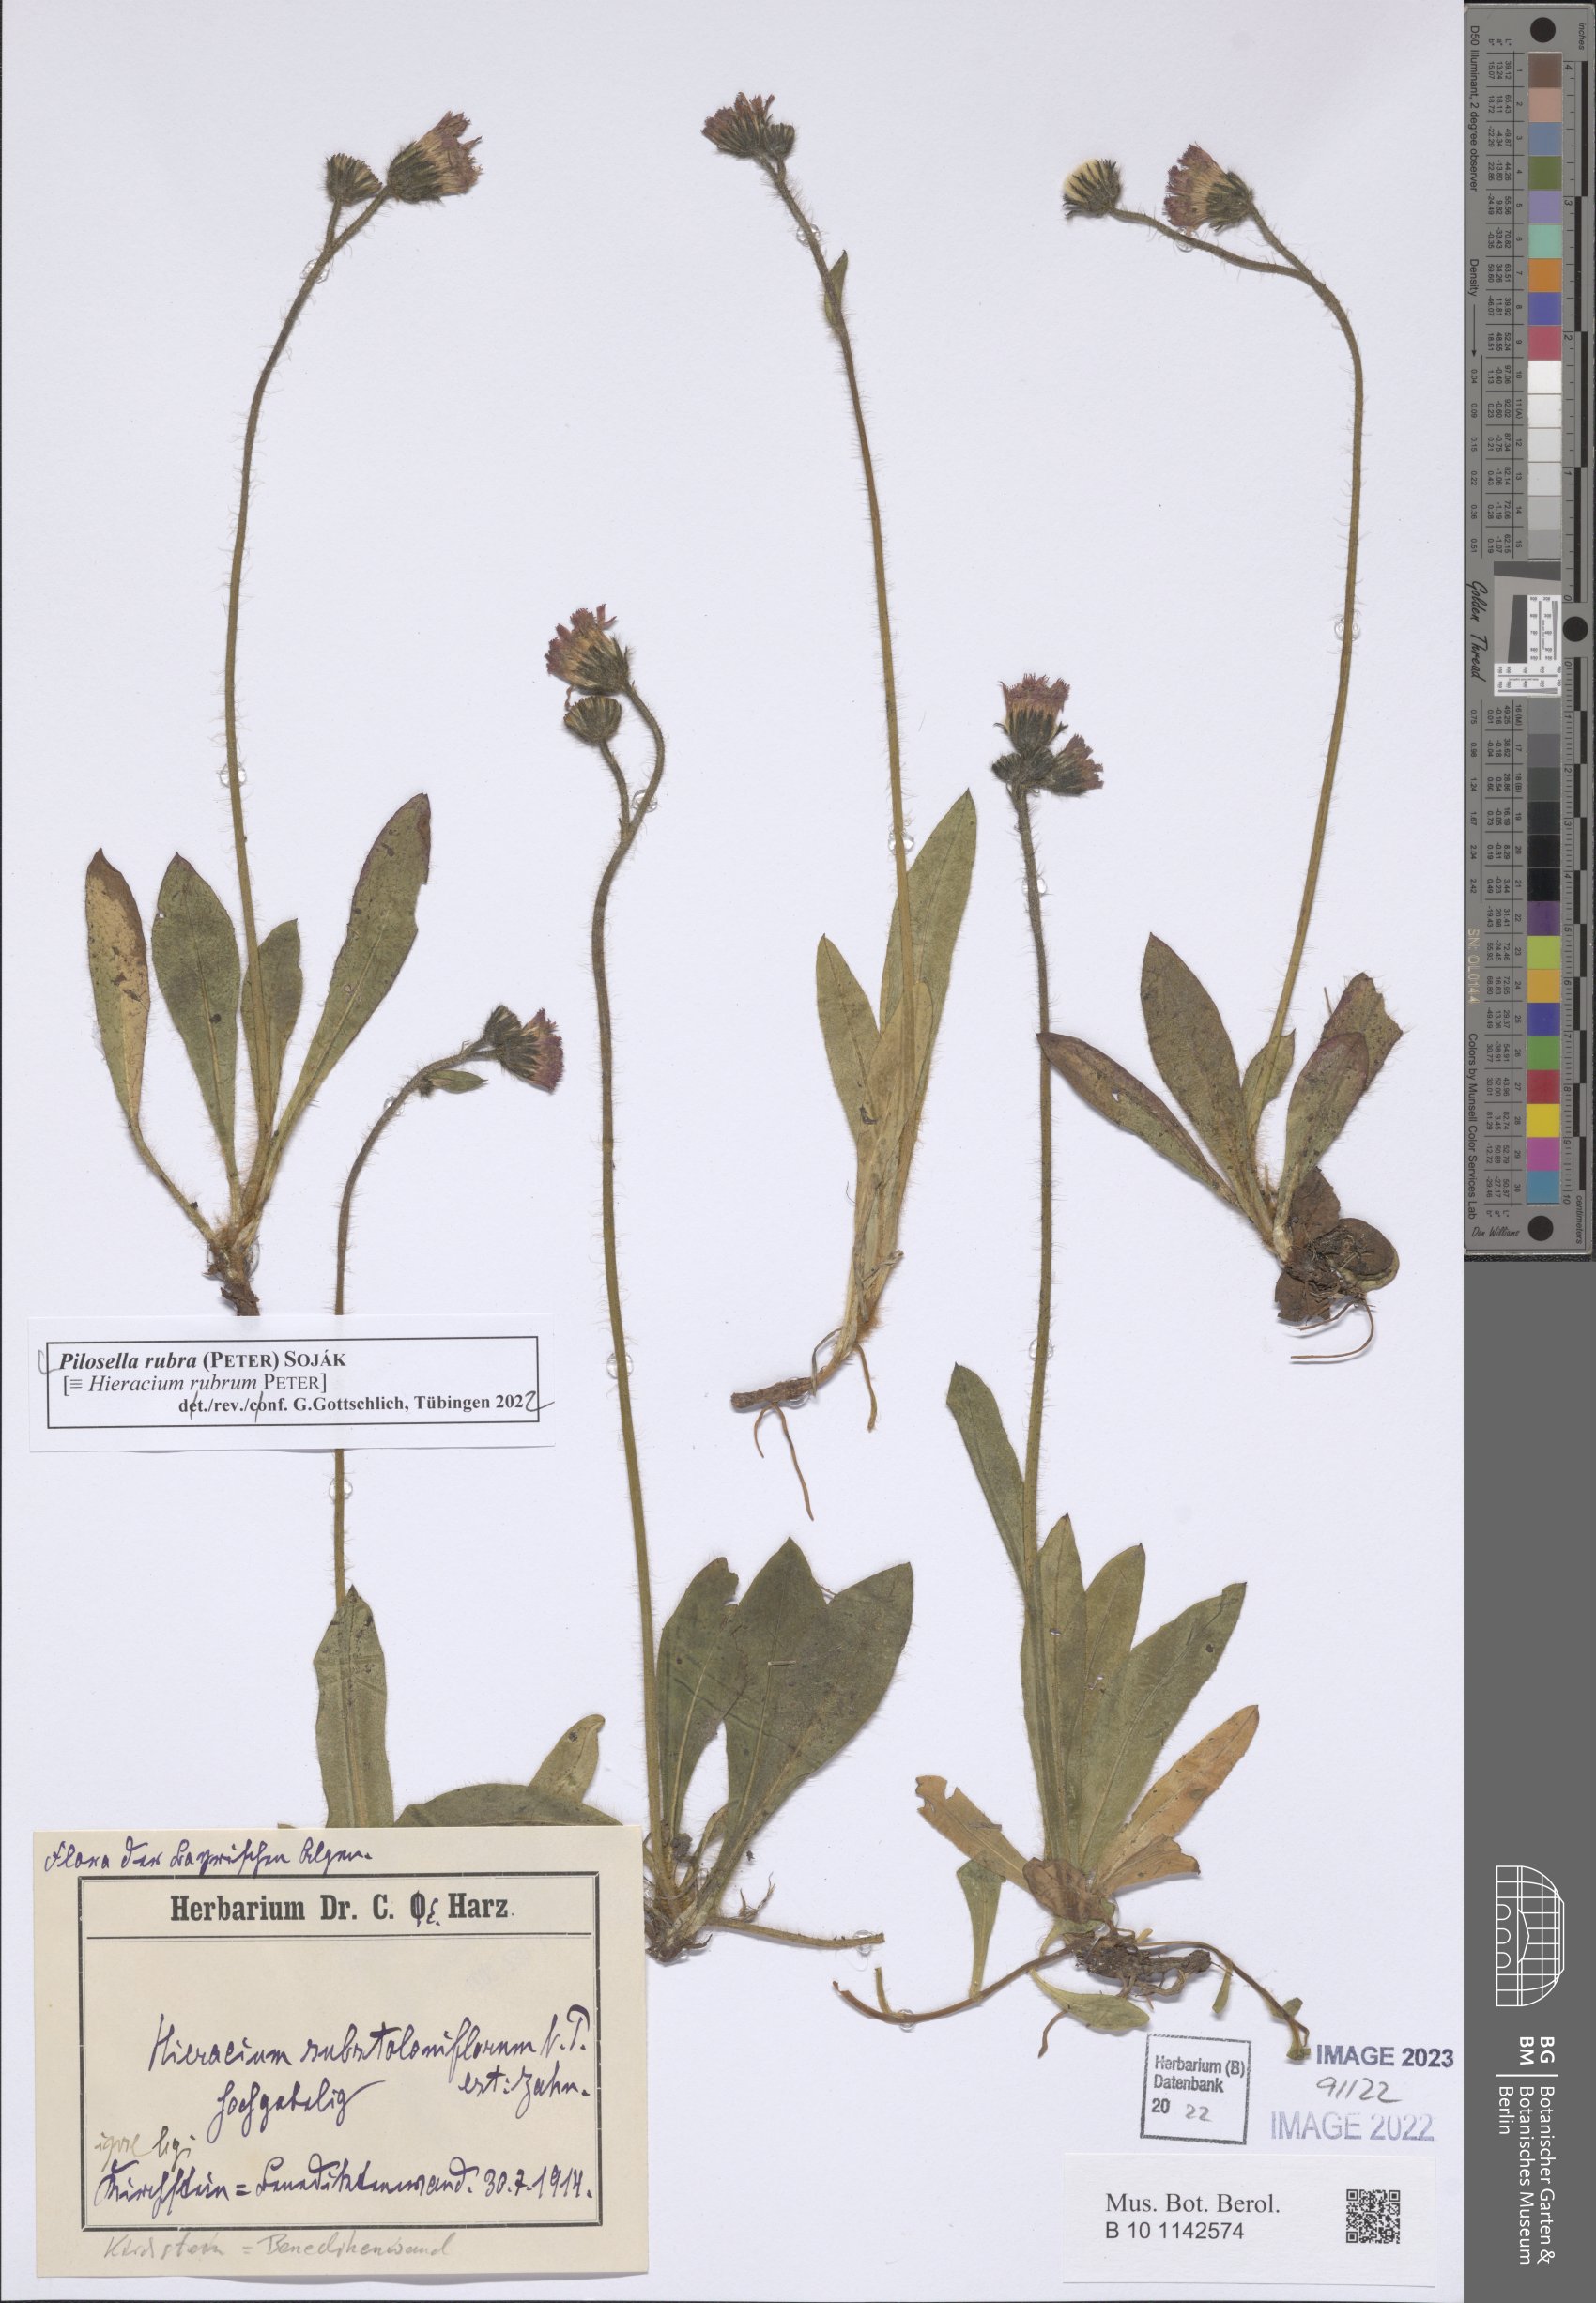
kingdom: Plantae
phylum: Tracheophyta
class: Magnoliopsida
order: Asterales
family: Asteraceae
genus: Pilosella
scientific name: Pilosella rubra
